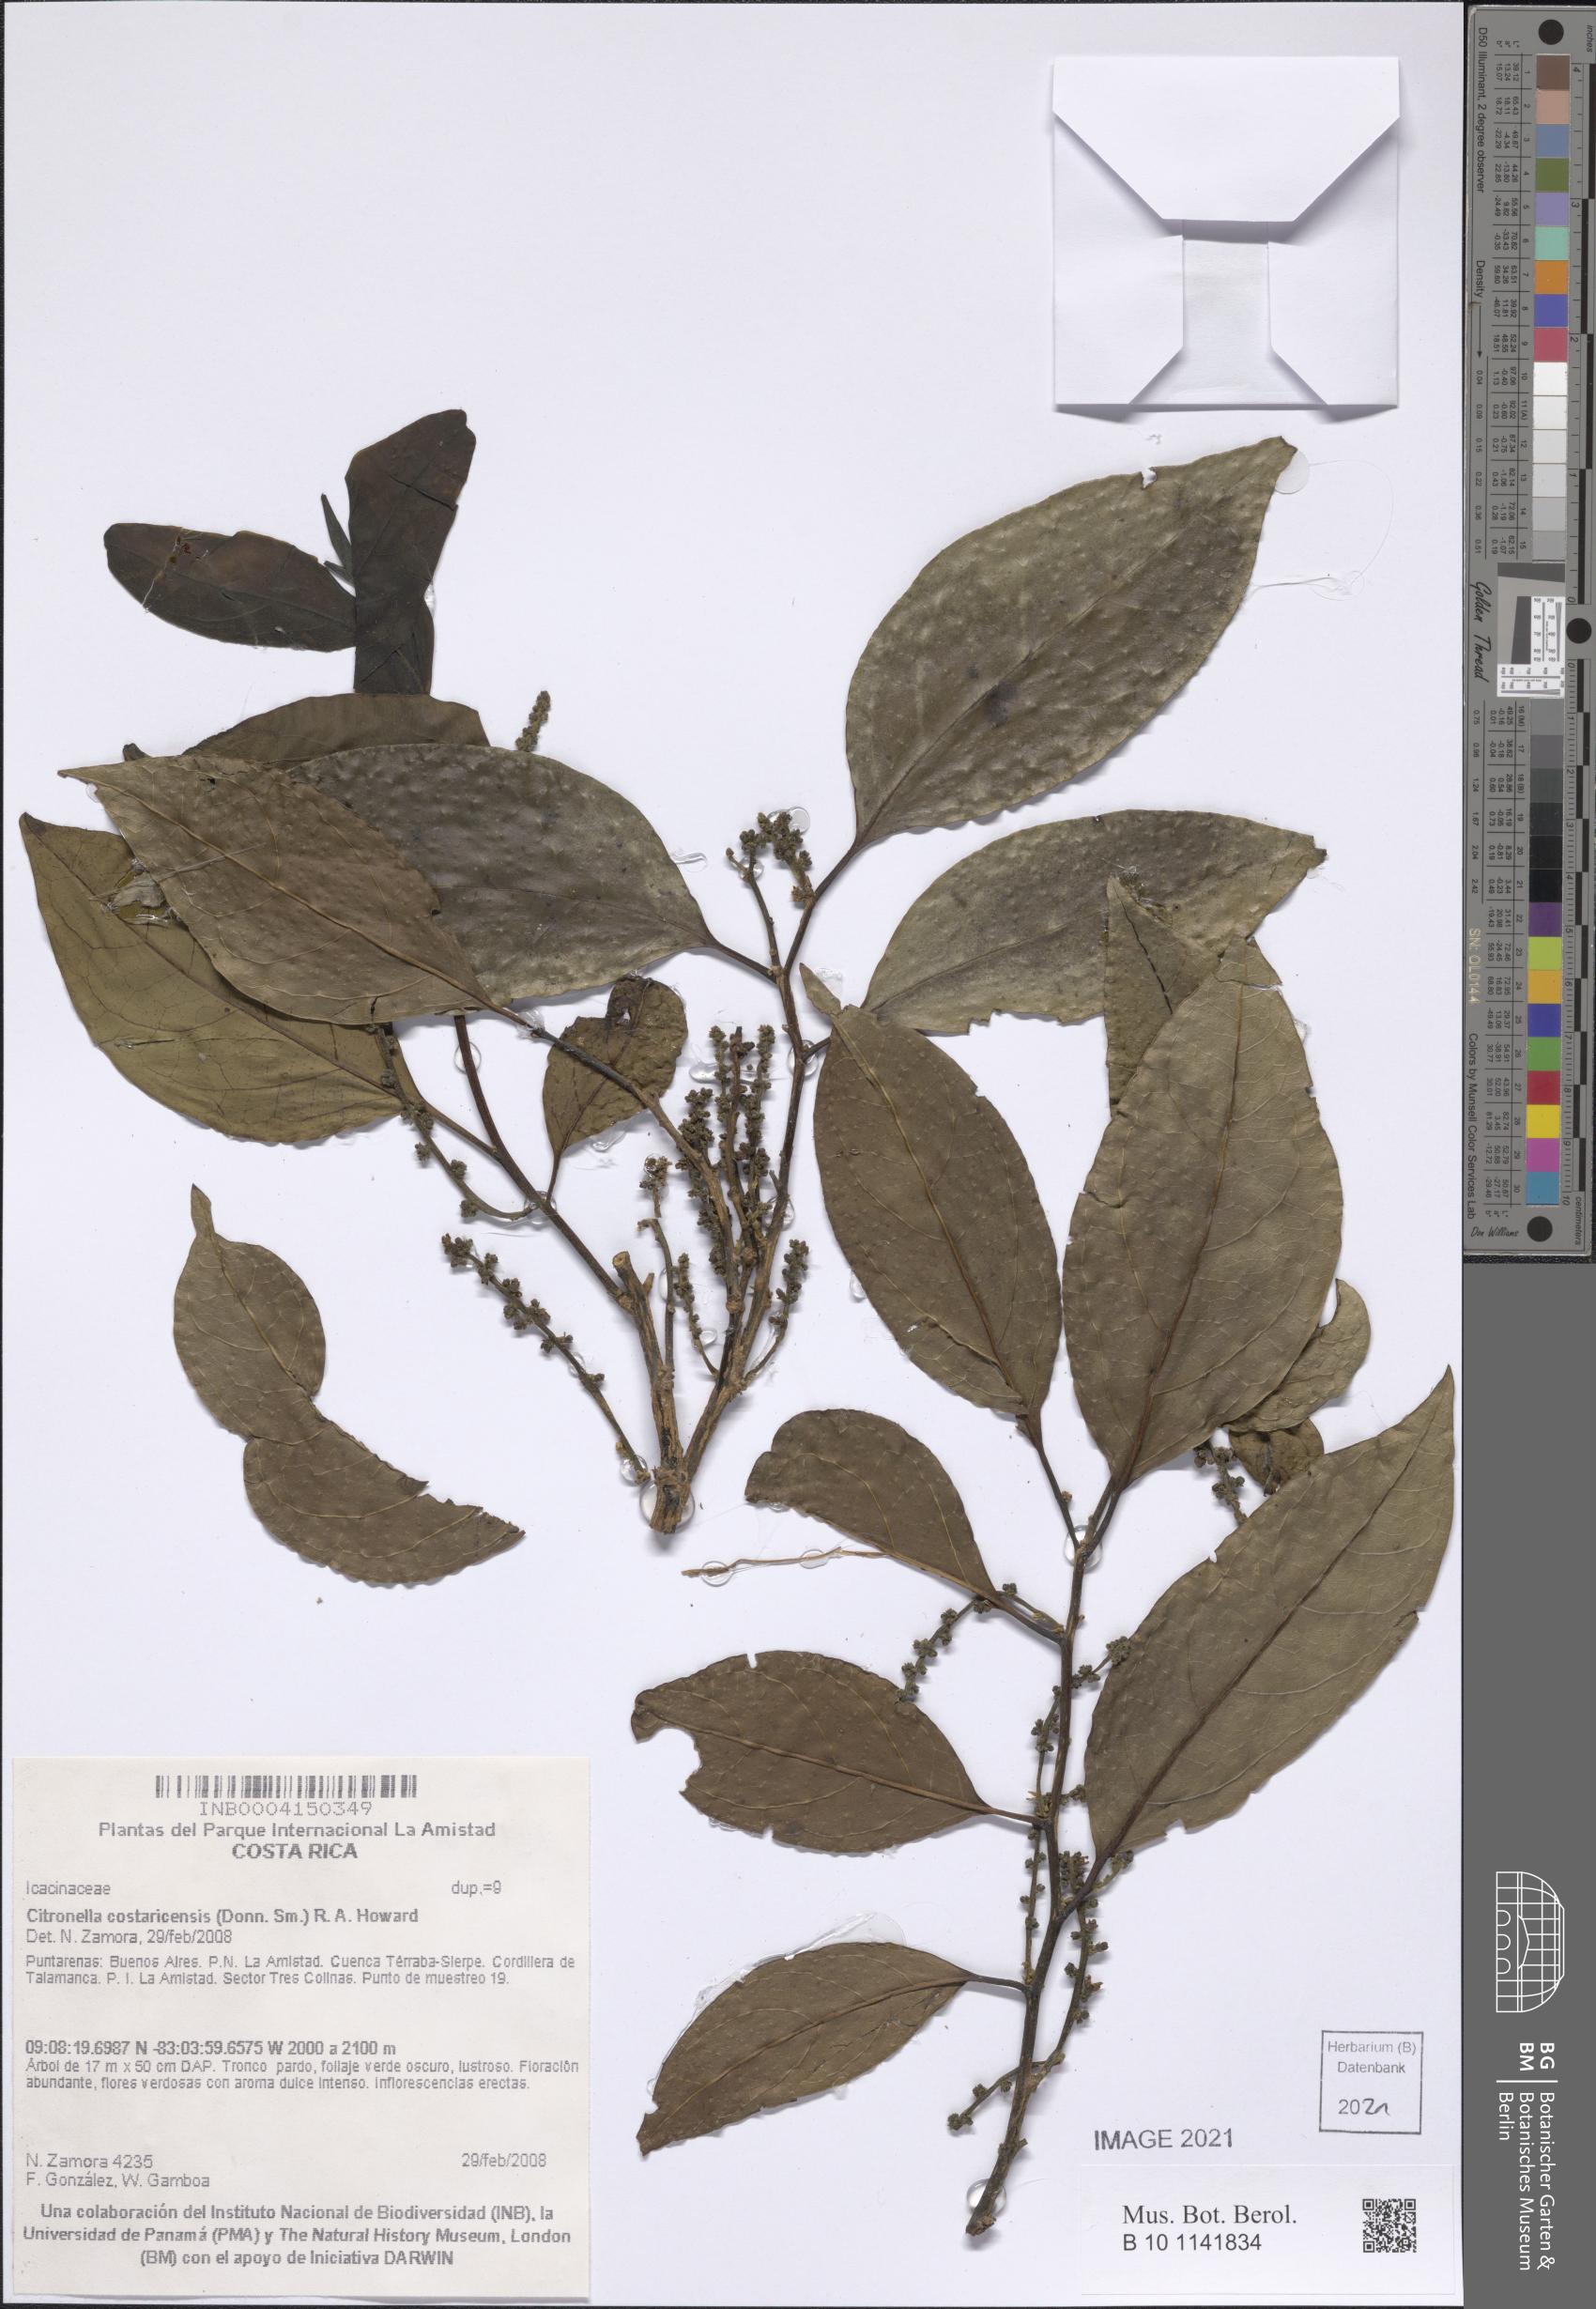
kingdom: Plantae
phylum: Tracheophyta
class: Magnoliopsida
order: Cardiopteridales
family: Cardiopteridaceae
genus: Citronella
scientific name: Citronella costaricensis
